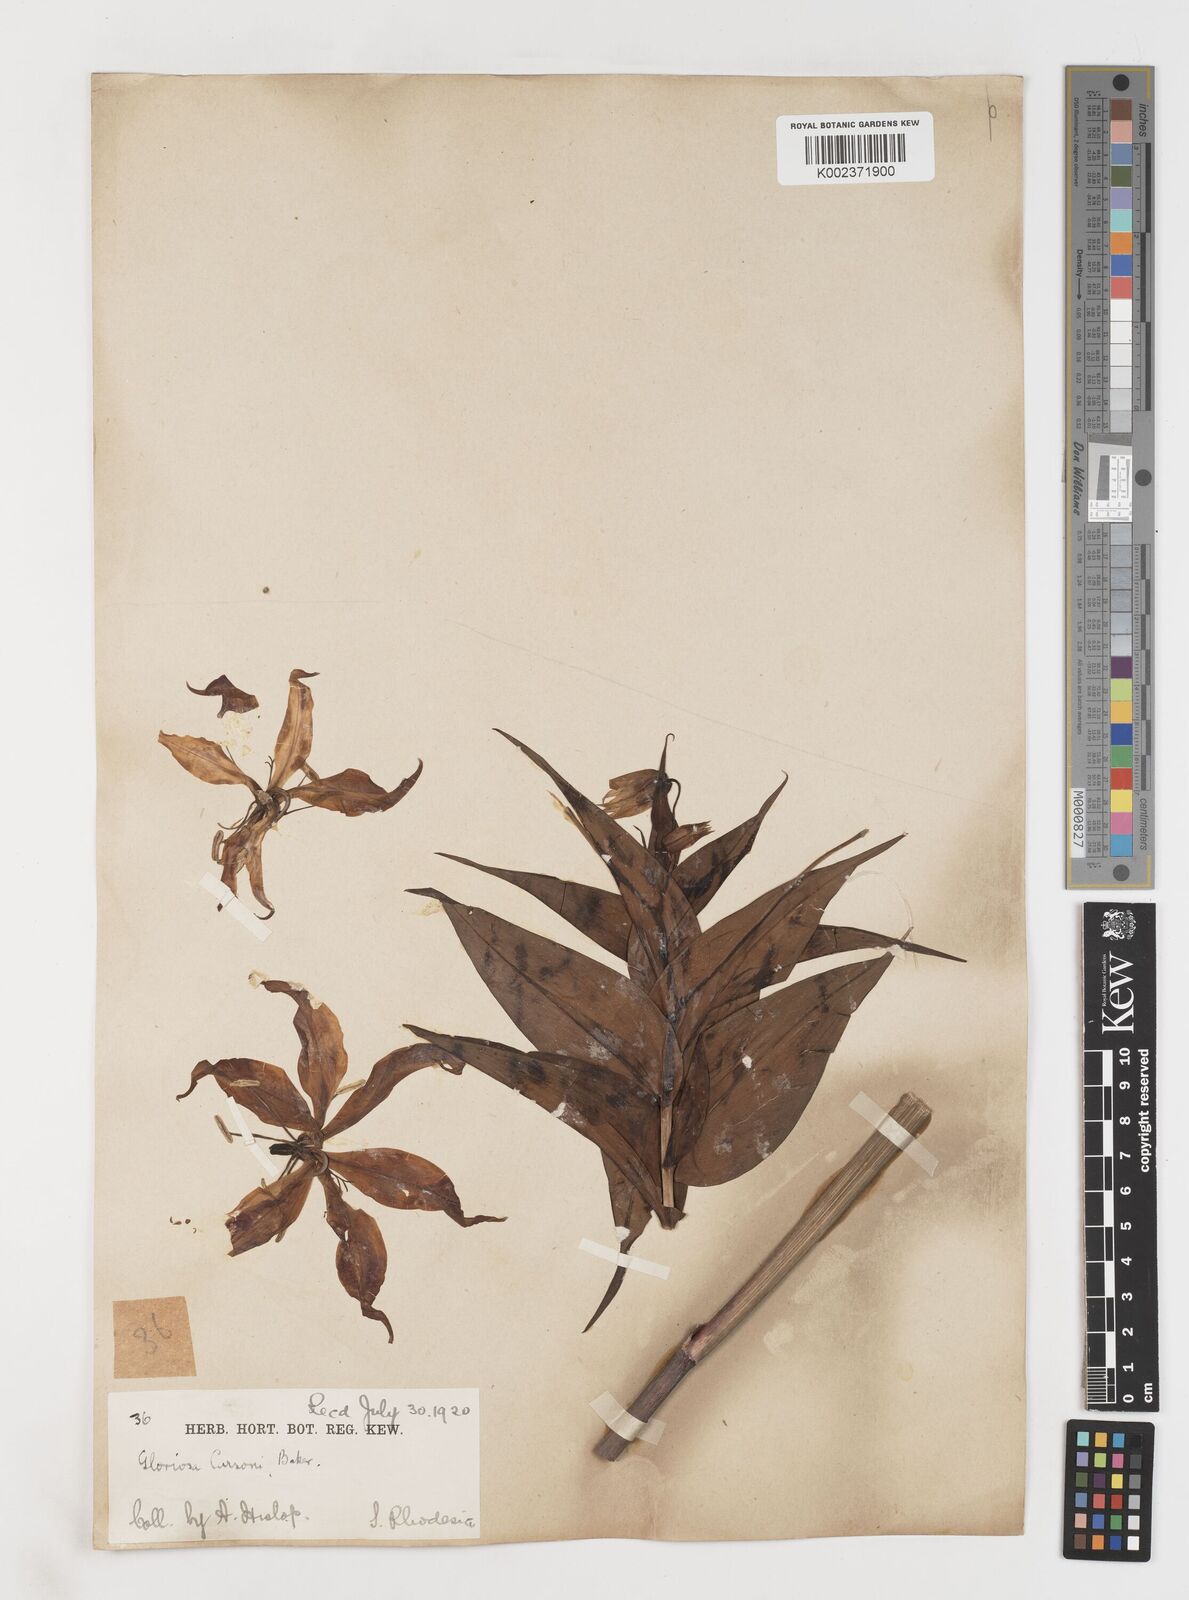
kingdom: Plantae
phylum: Tracheophyta
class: Liliopsida
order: Liliales
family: Colchicaceae
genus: Gloriosa
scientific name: Gloriosa simplex
